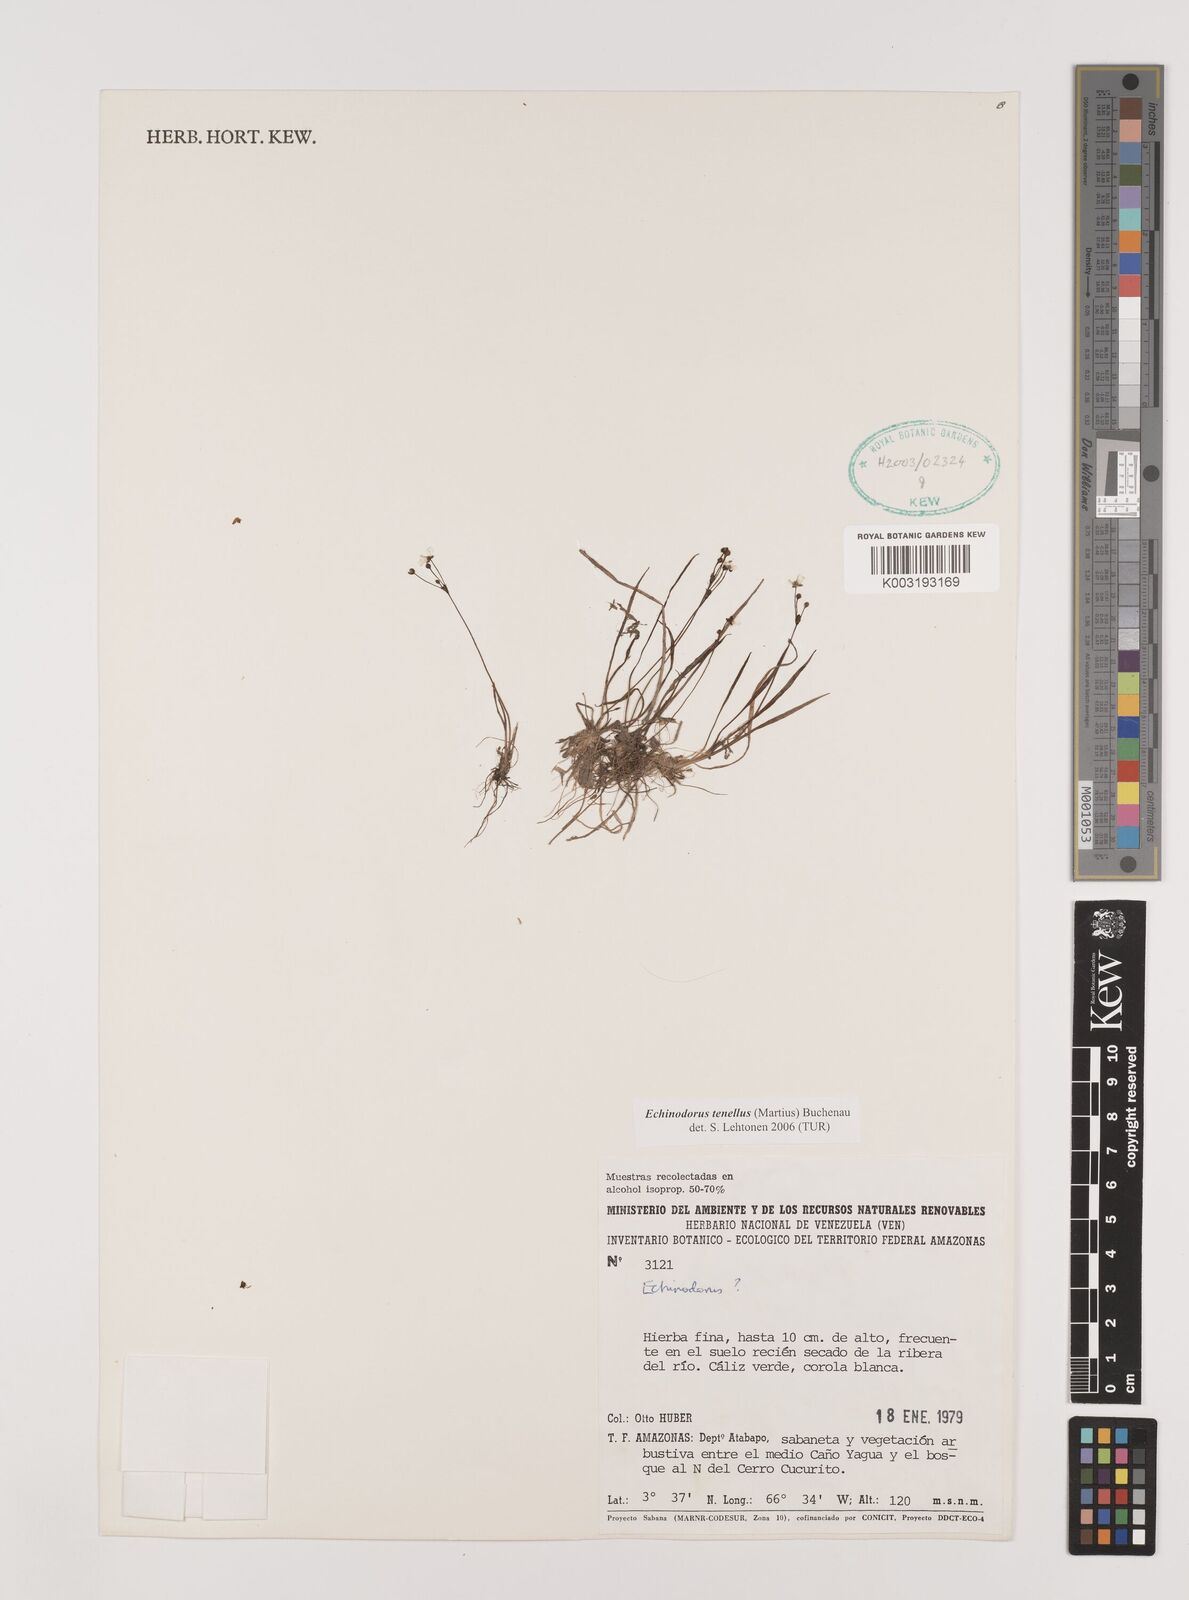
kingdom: Plantae
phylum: Tracheophyta
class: Liliopsida
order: Alismatales
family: Alismataceae
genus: Helanthium
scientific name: Helanthium tenellum
